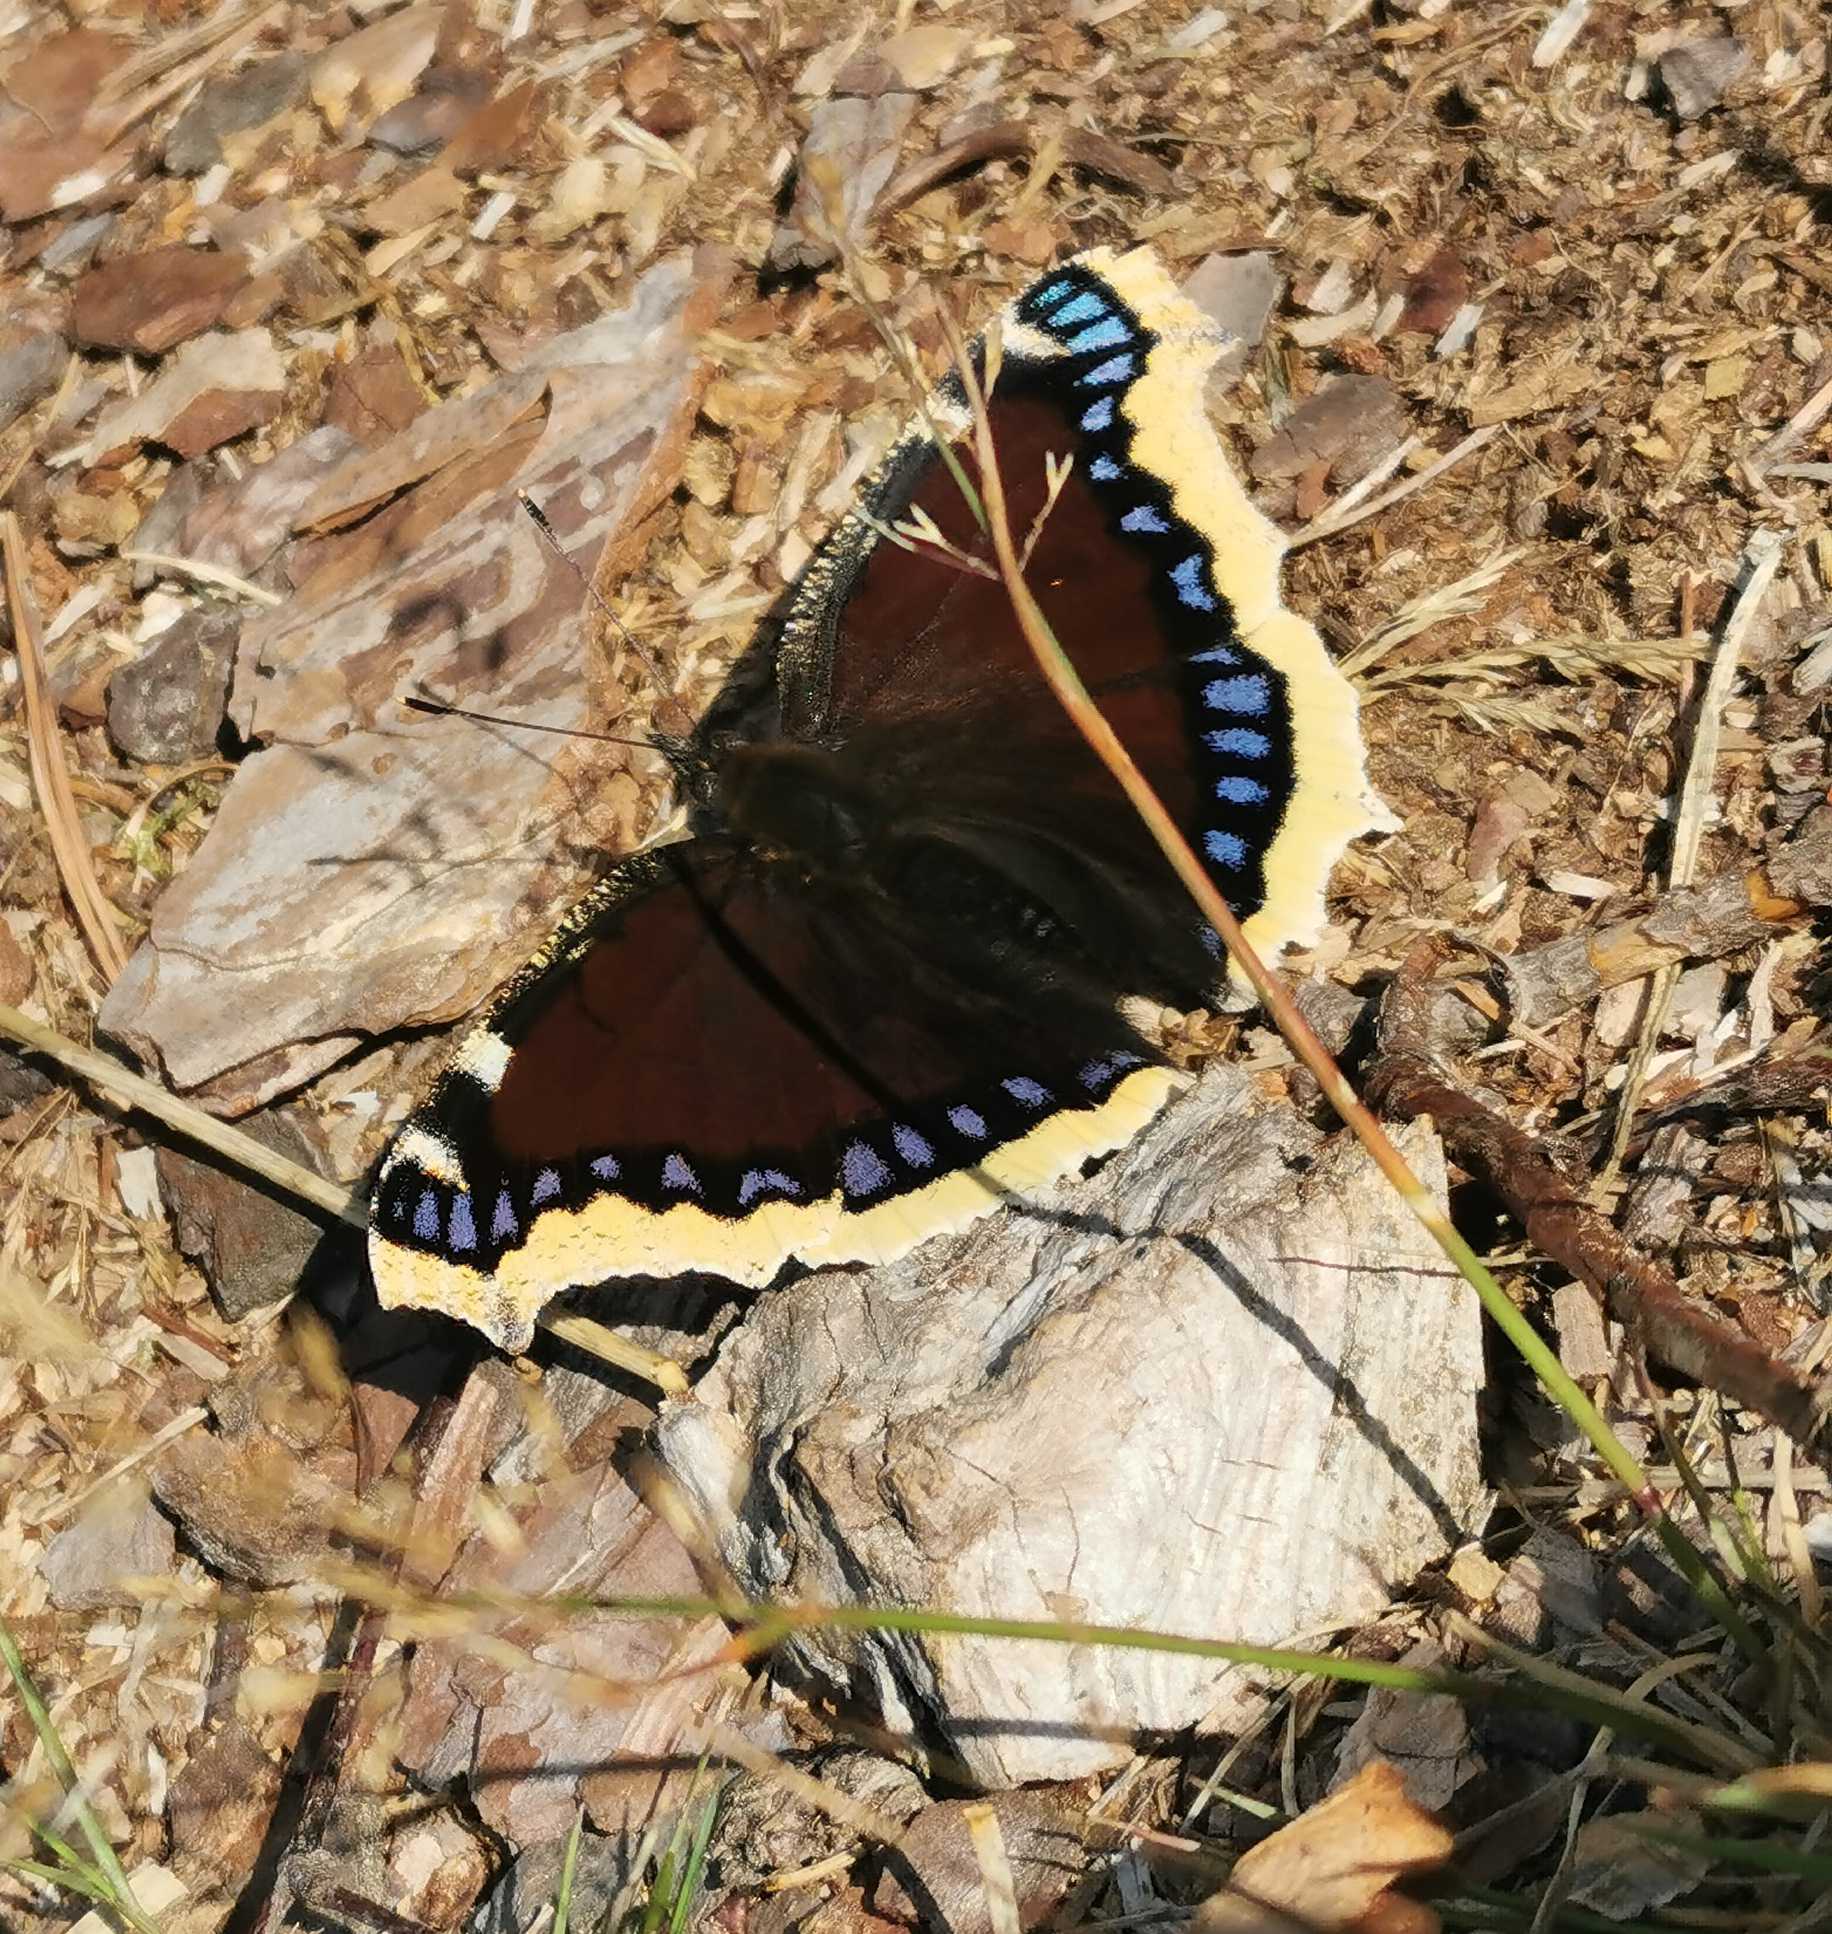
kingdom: Animalia
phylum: Arthropoda
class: Insecta
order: Lepidoptera
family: Nymphalidae
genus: Nymphalis
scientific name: Nymphalis antiopa
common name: Sørgekåbe
